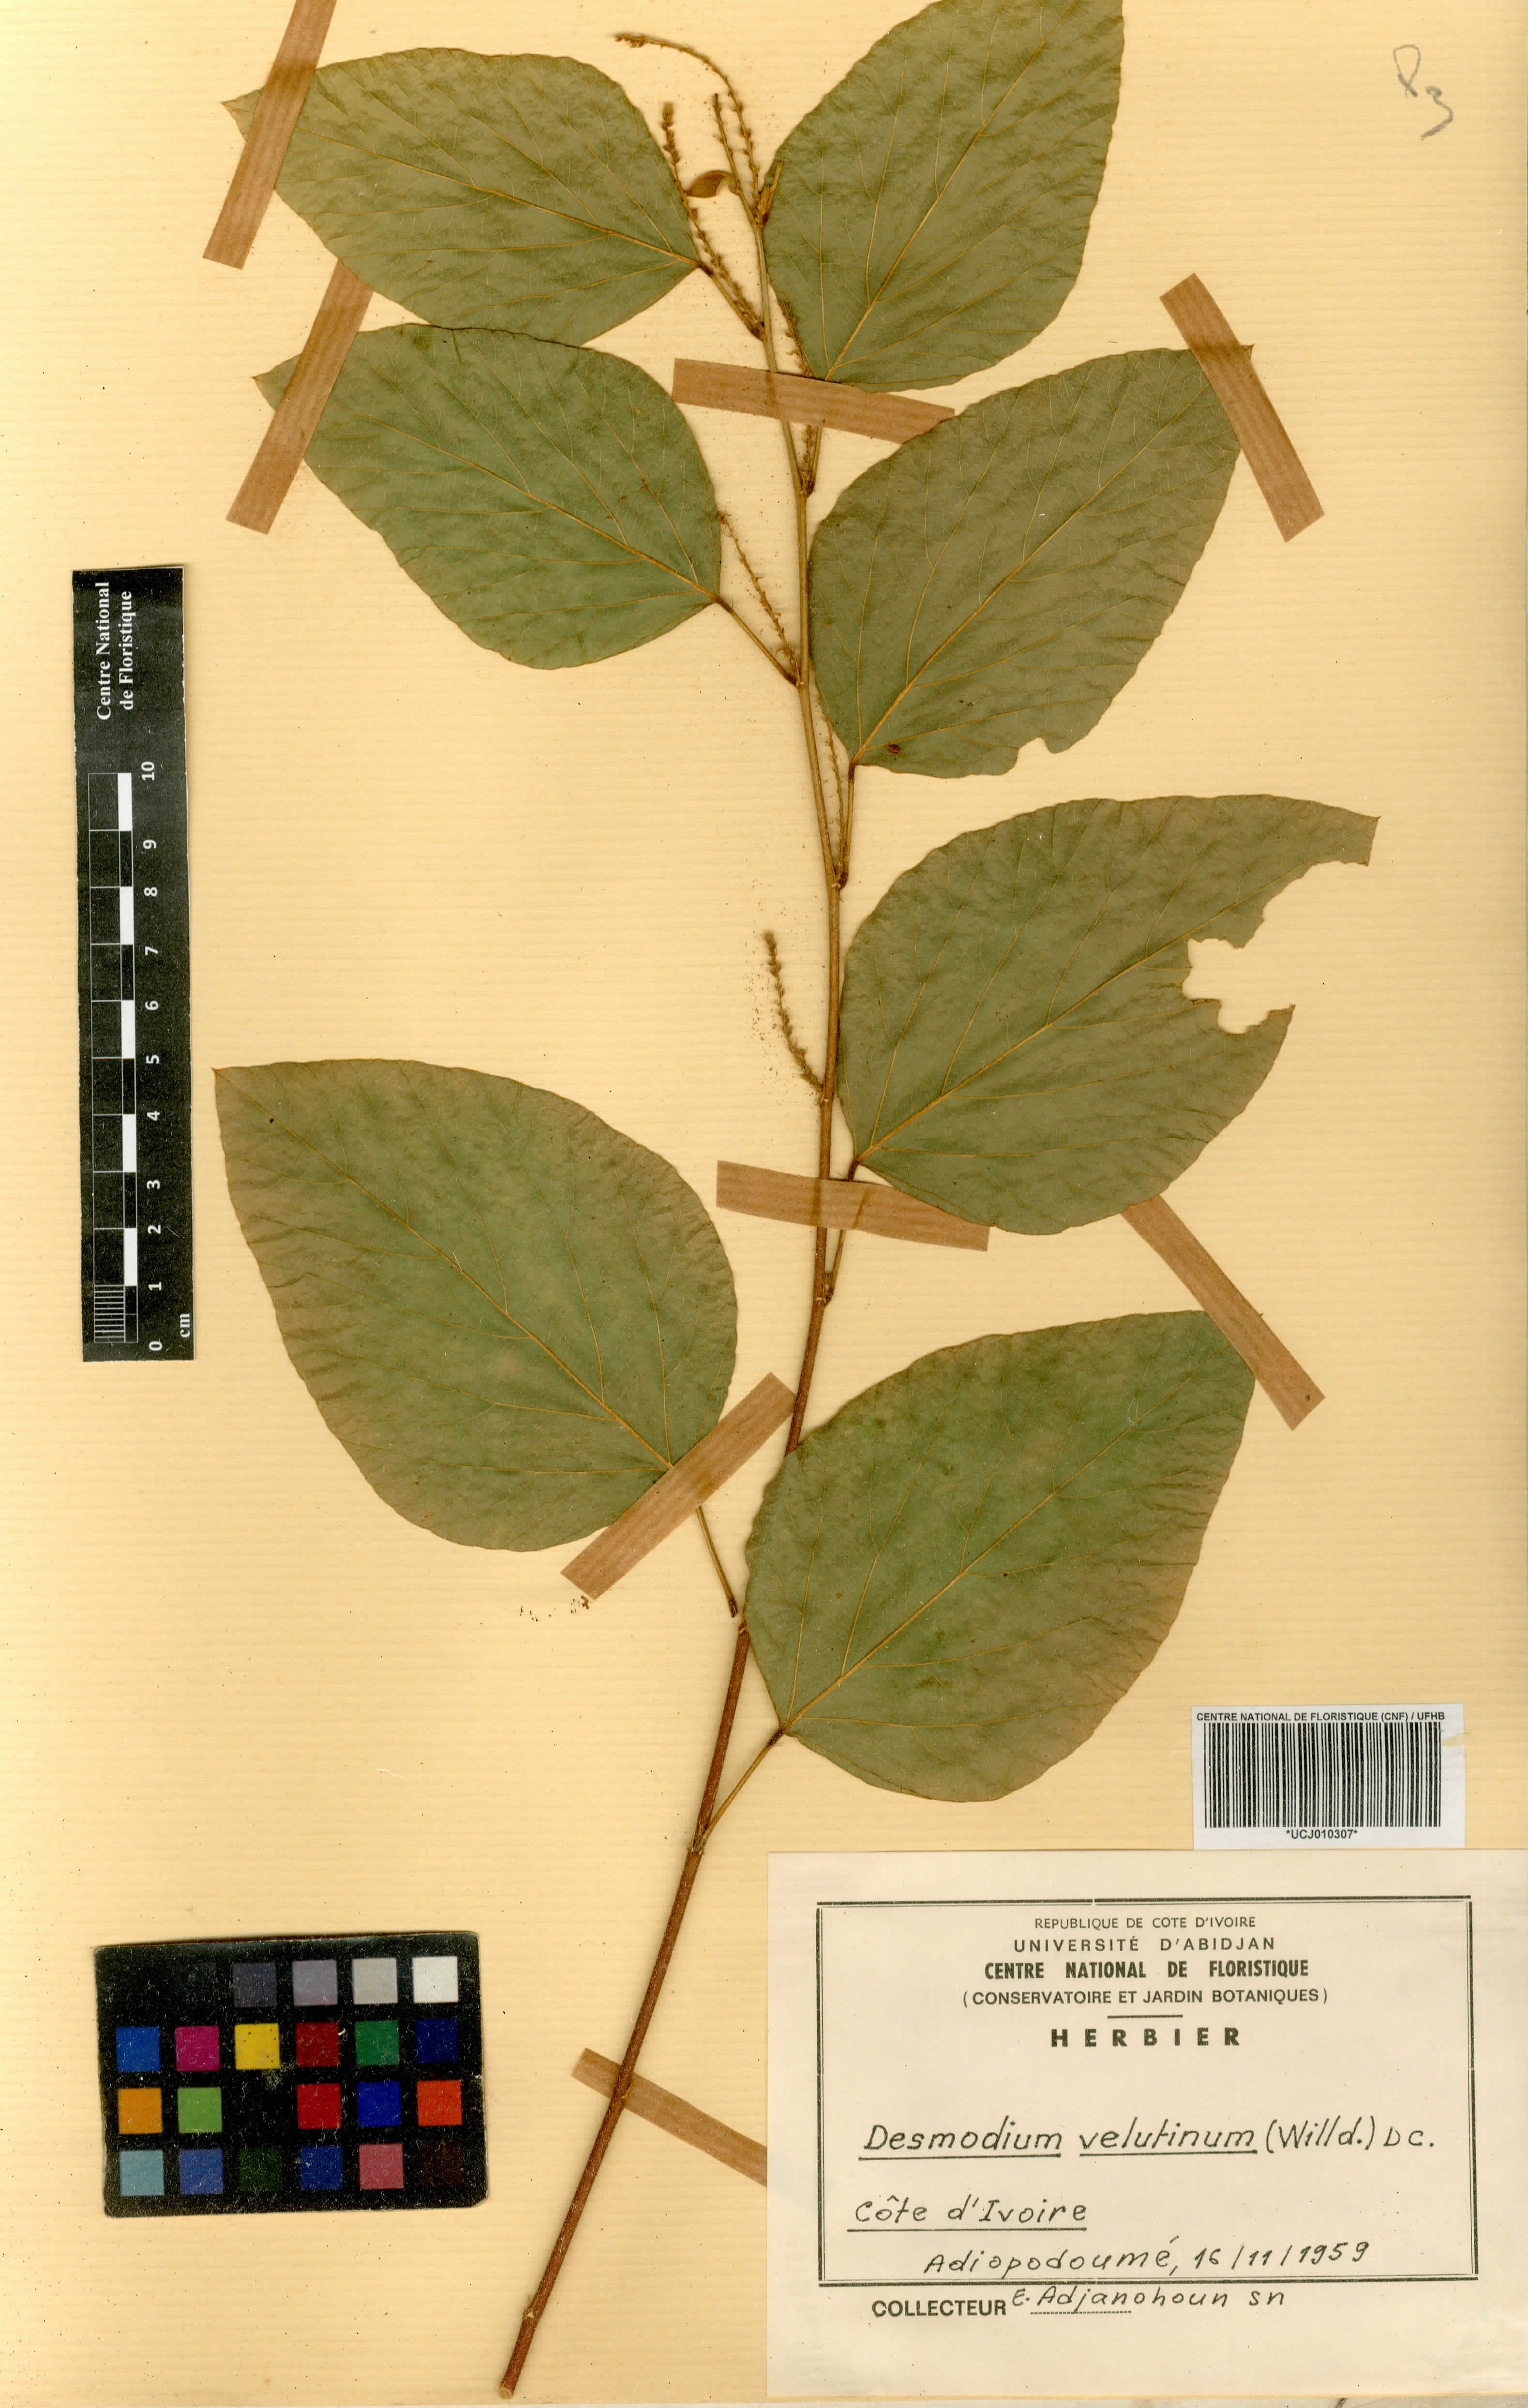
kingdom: Plantae
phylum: Tracheophyta
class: Magnoliopsida
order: Fabales
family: Fabaceae
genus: Polhillides
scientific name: Polhillides velutina
